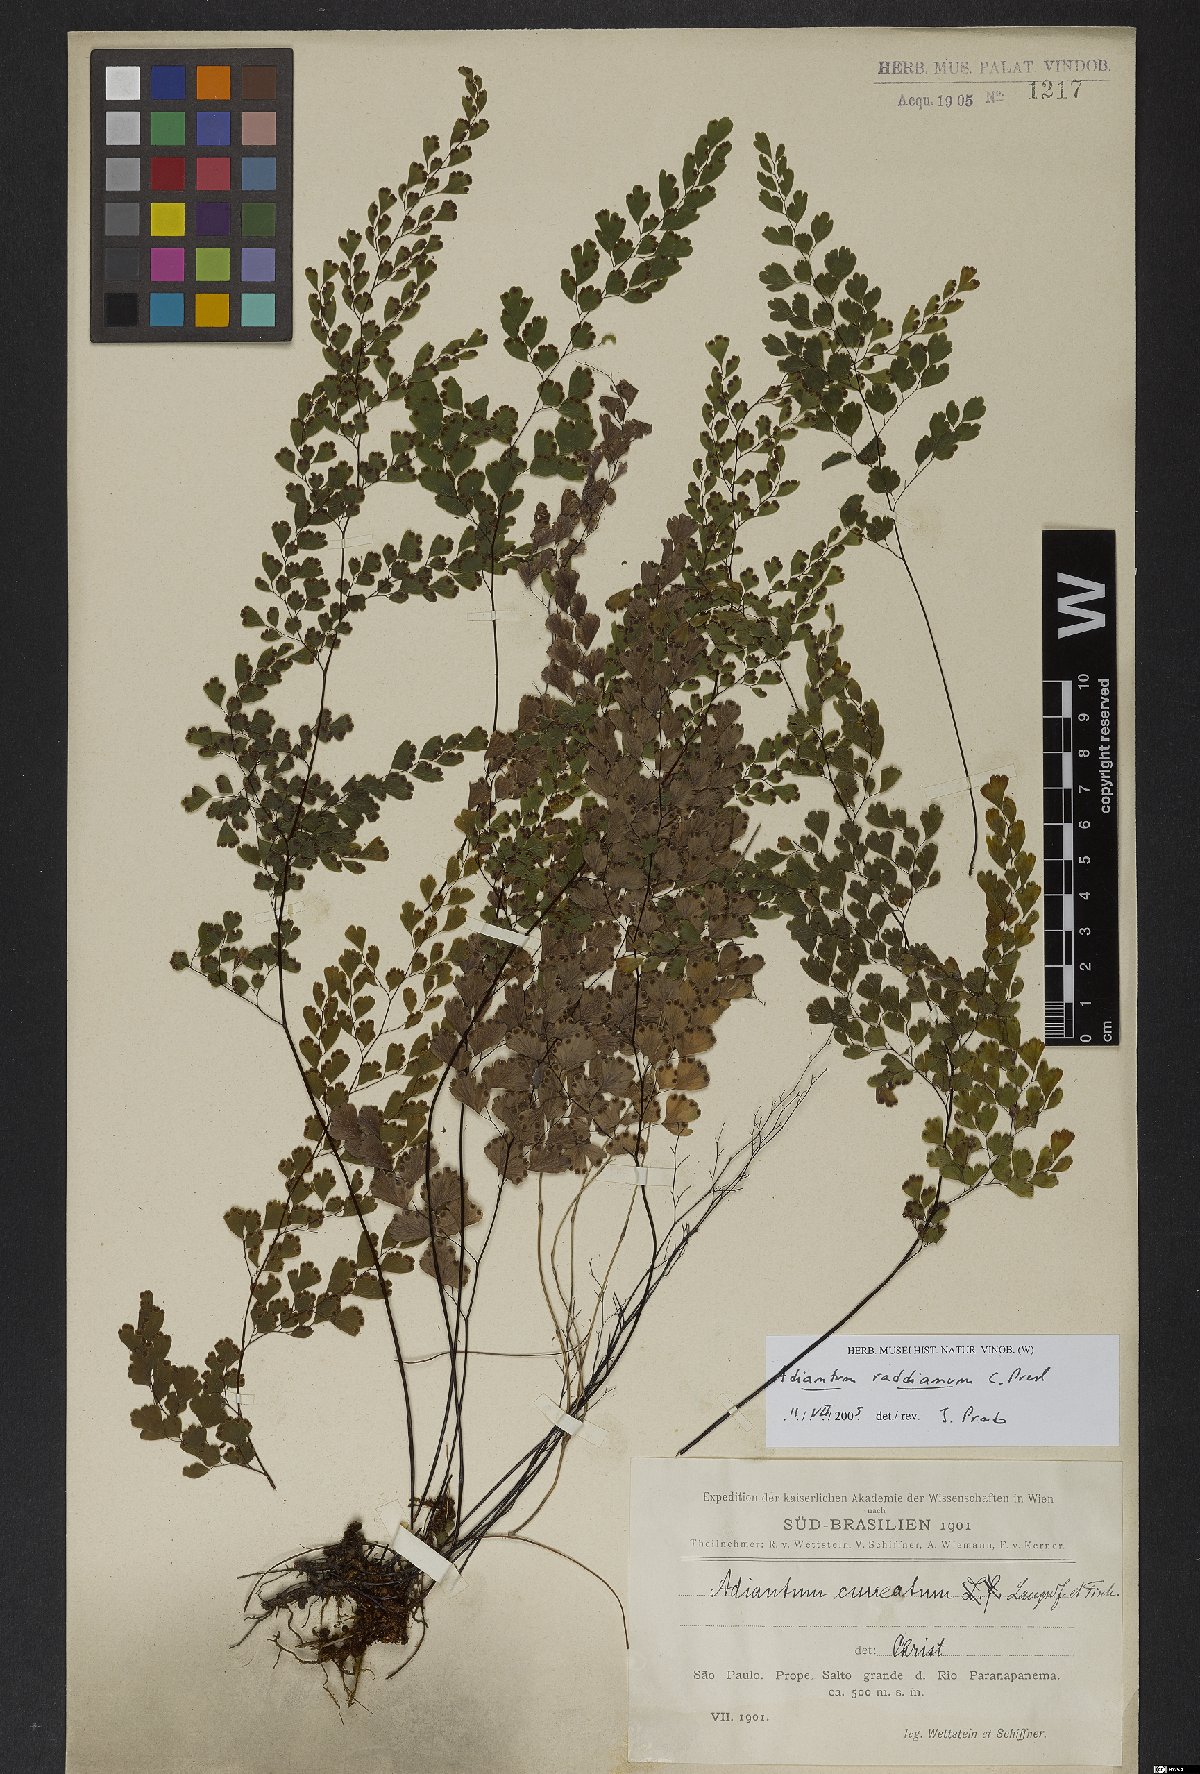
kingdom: Plantae
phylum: Tracheophyta
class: Polypodiopsida
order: Polypodiales
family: Pteridaceae
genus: Adiantum
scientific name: Adiantum raddianum
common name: Delta maidenhair fern
